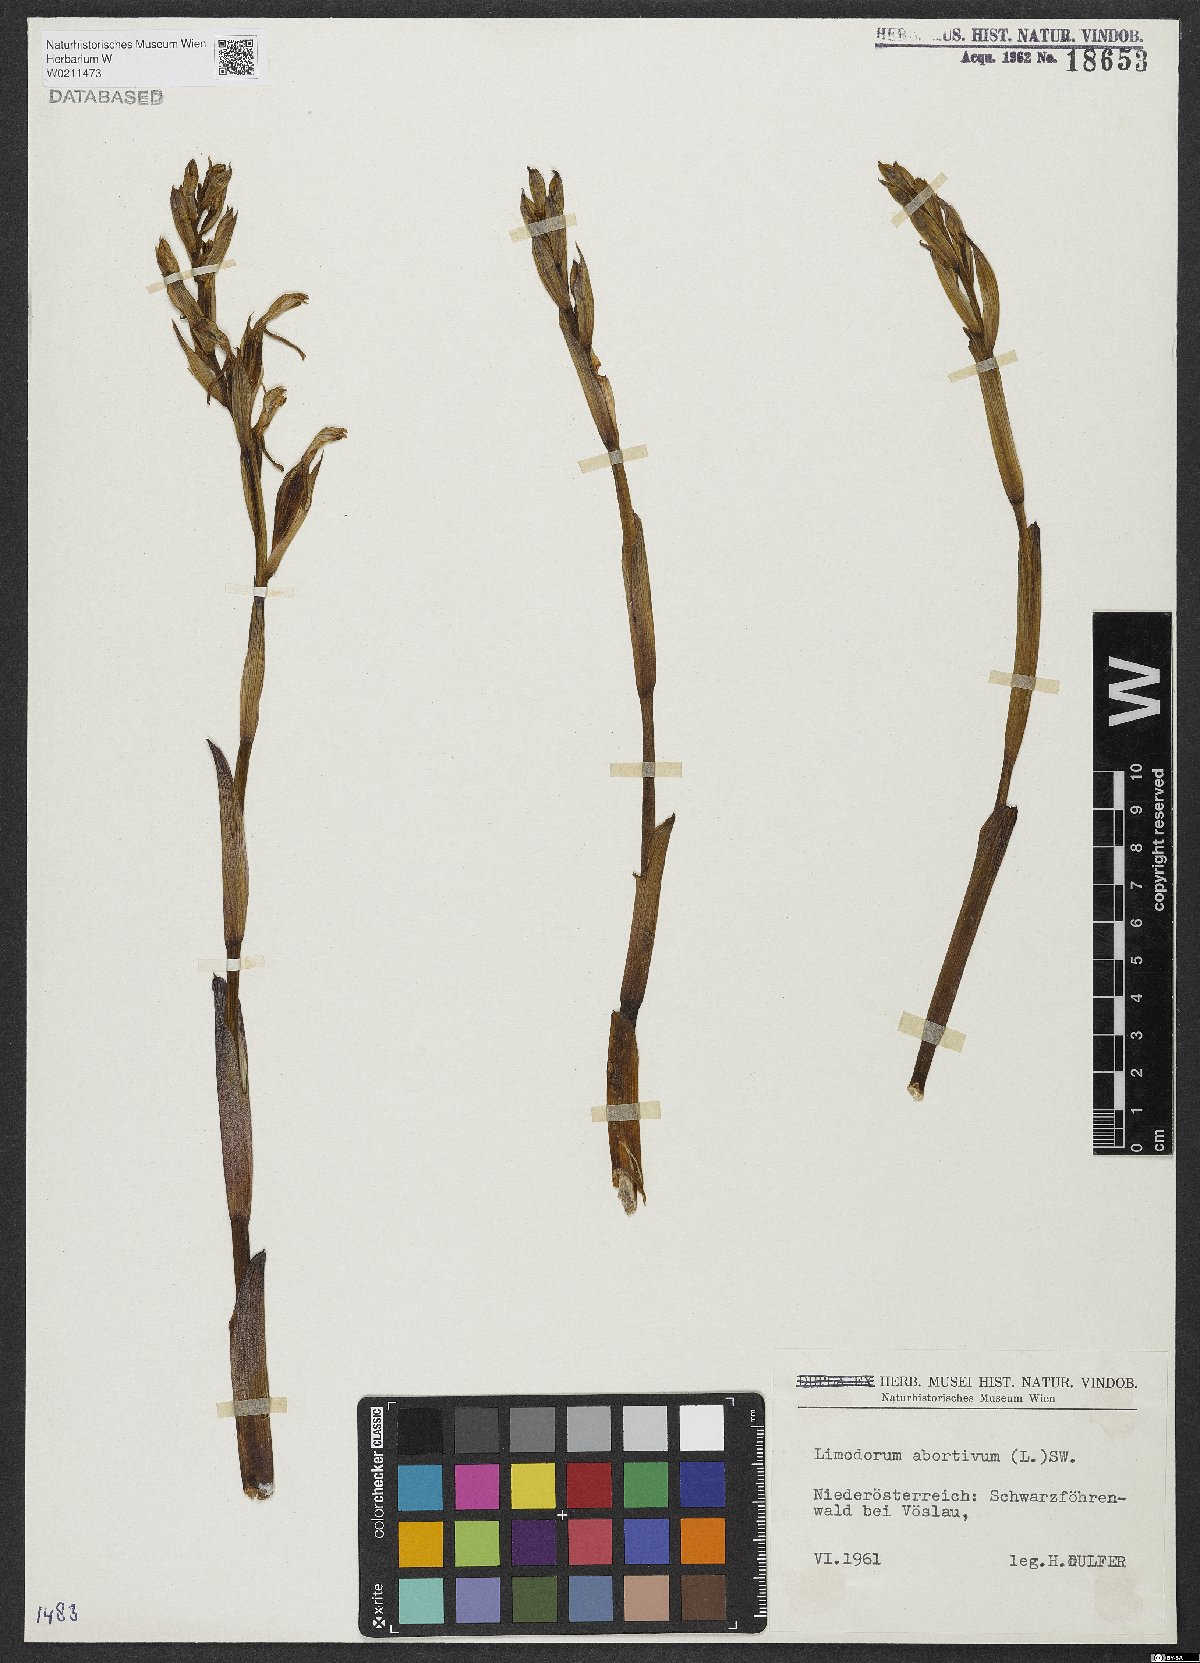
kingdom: Plantae
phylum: Tracheophyta
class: Liliopsida
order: Asparagales
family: Orchidaceae
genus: Limodorum
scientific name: Limodorum abortivum
